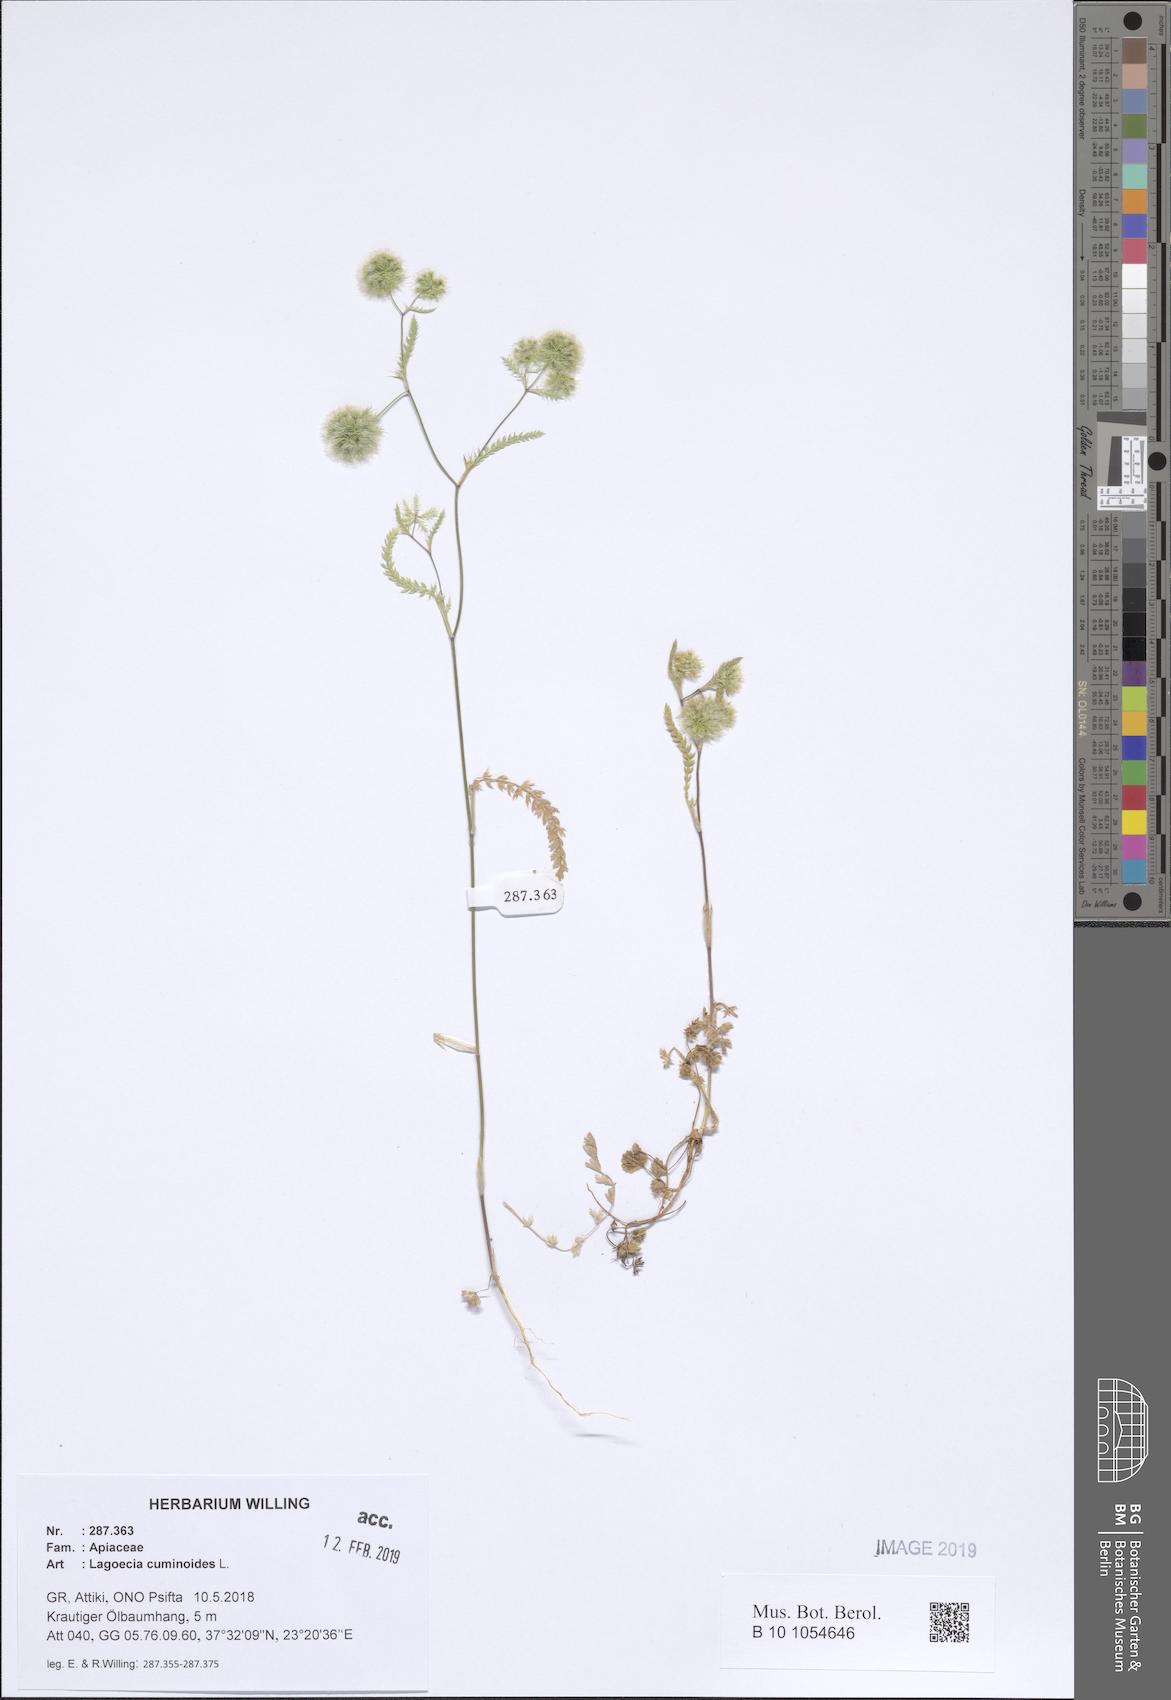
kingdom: Plantae
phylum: Tracheophyta
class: Magnoliopsida
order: Apiales
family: Apiaceae
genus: Lagoecia
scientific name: Lagoecia cuminoides
